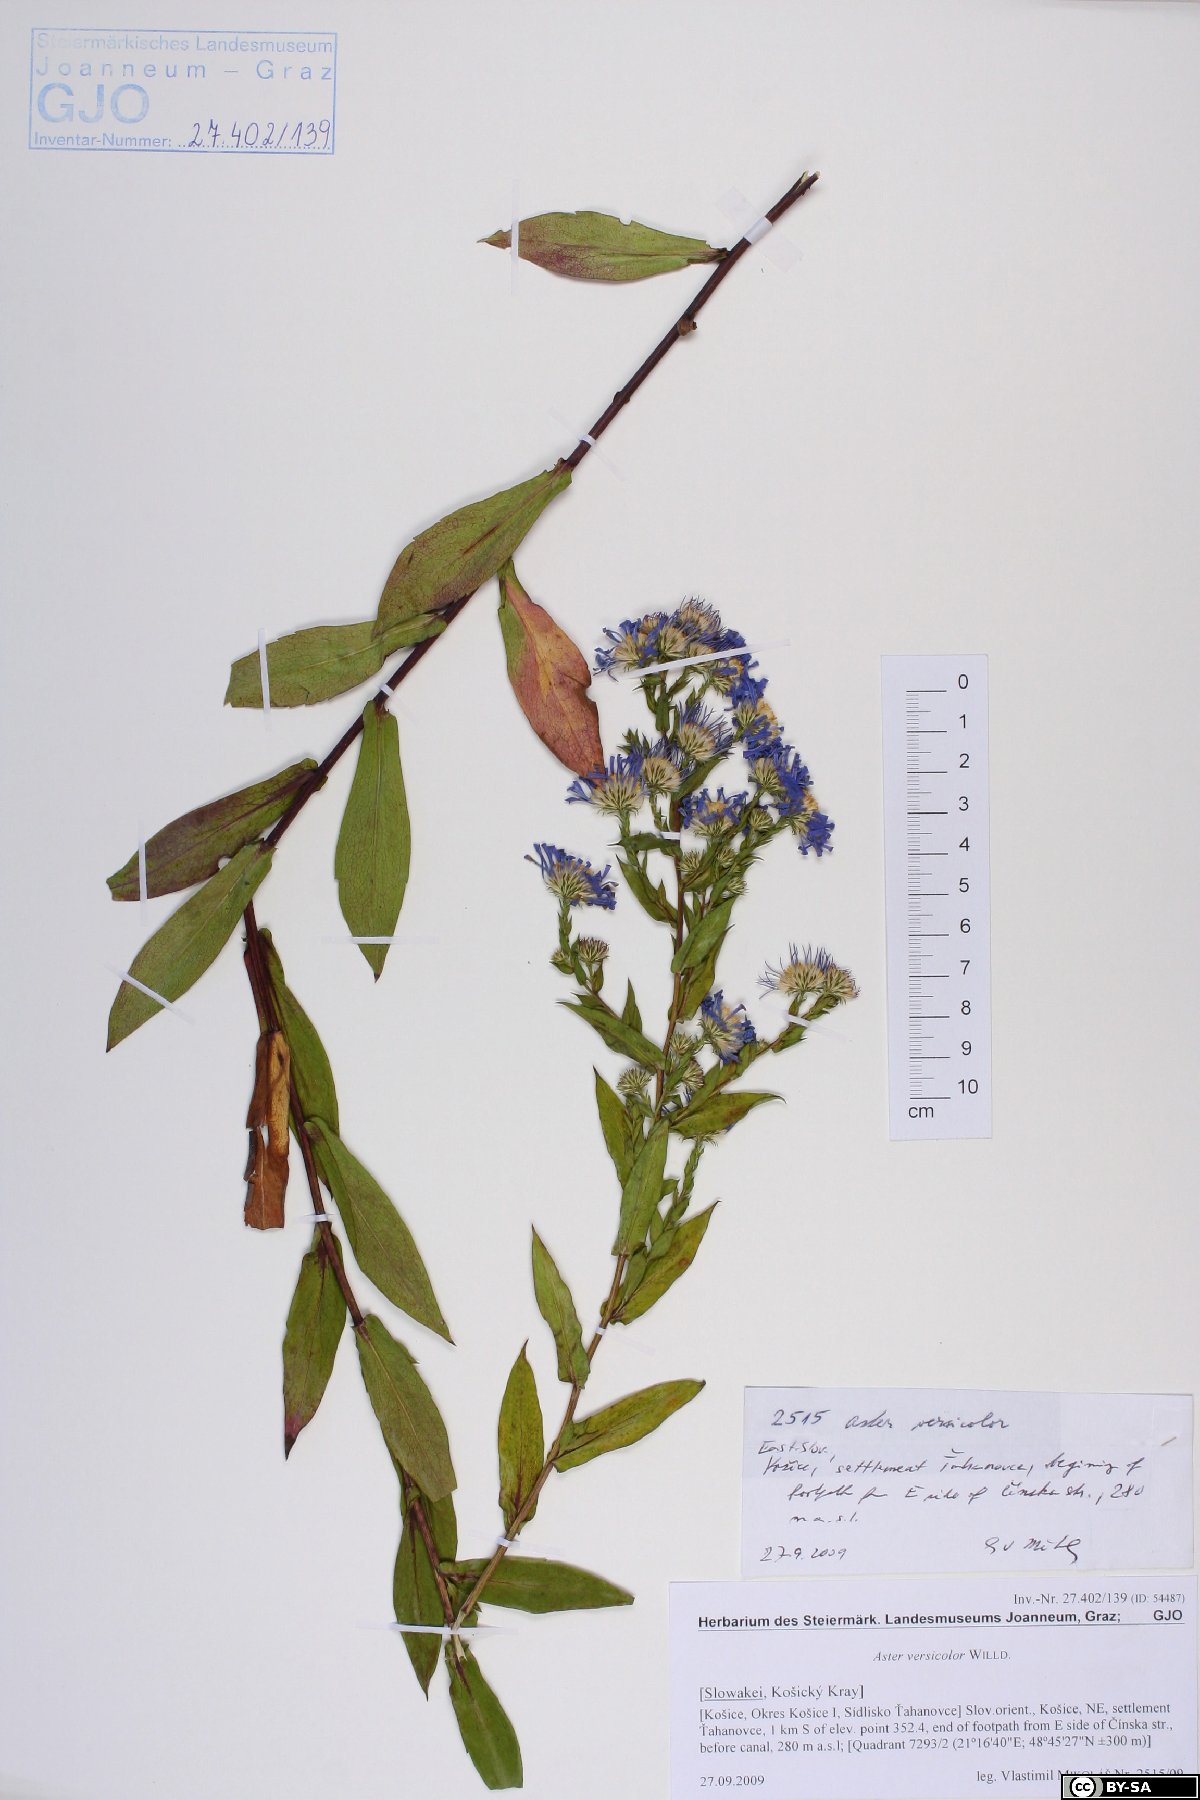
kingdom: Plantae
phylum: Tracheophyta
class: Magnoliopsida
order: Asterales
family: Asteraceae
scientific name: Asteraceae
